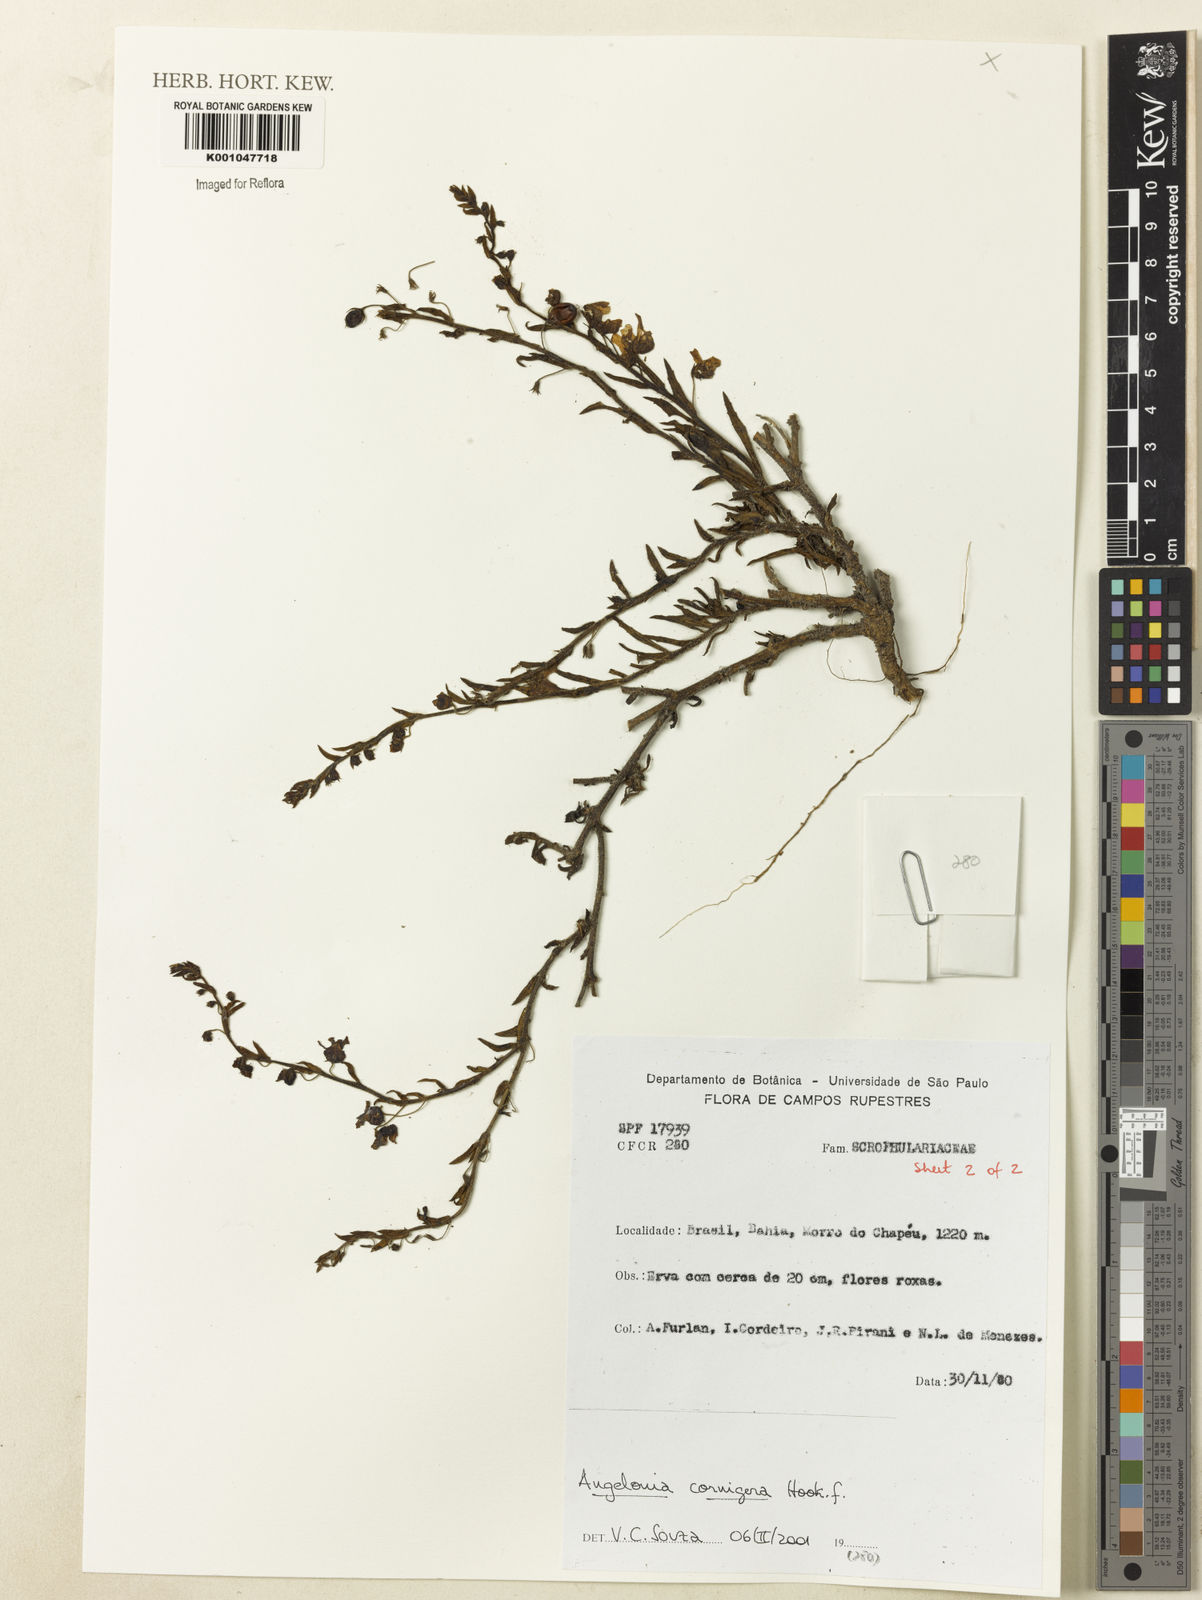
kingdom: Plantae
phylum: Tracheophyta
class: Magnoliopsida
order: Lamiales
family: Plantaginaceae
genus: Angelonia
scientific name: Angelonia cornigera
